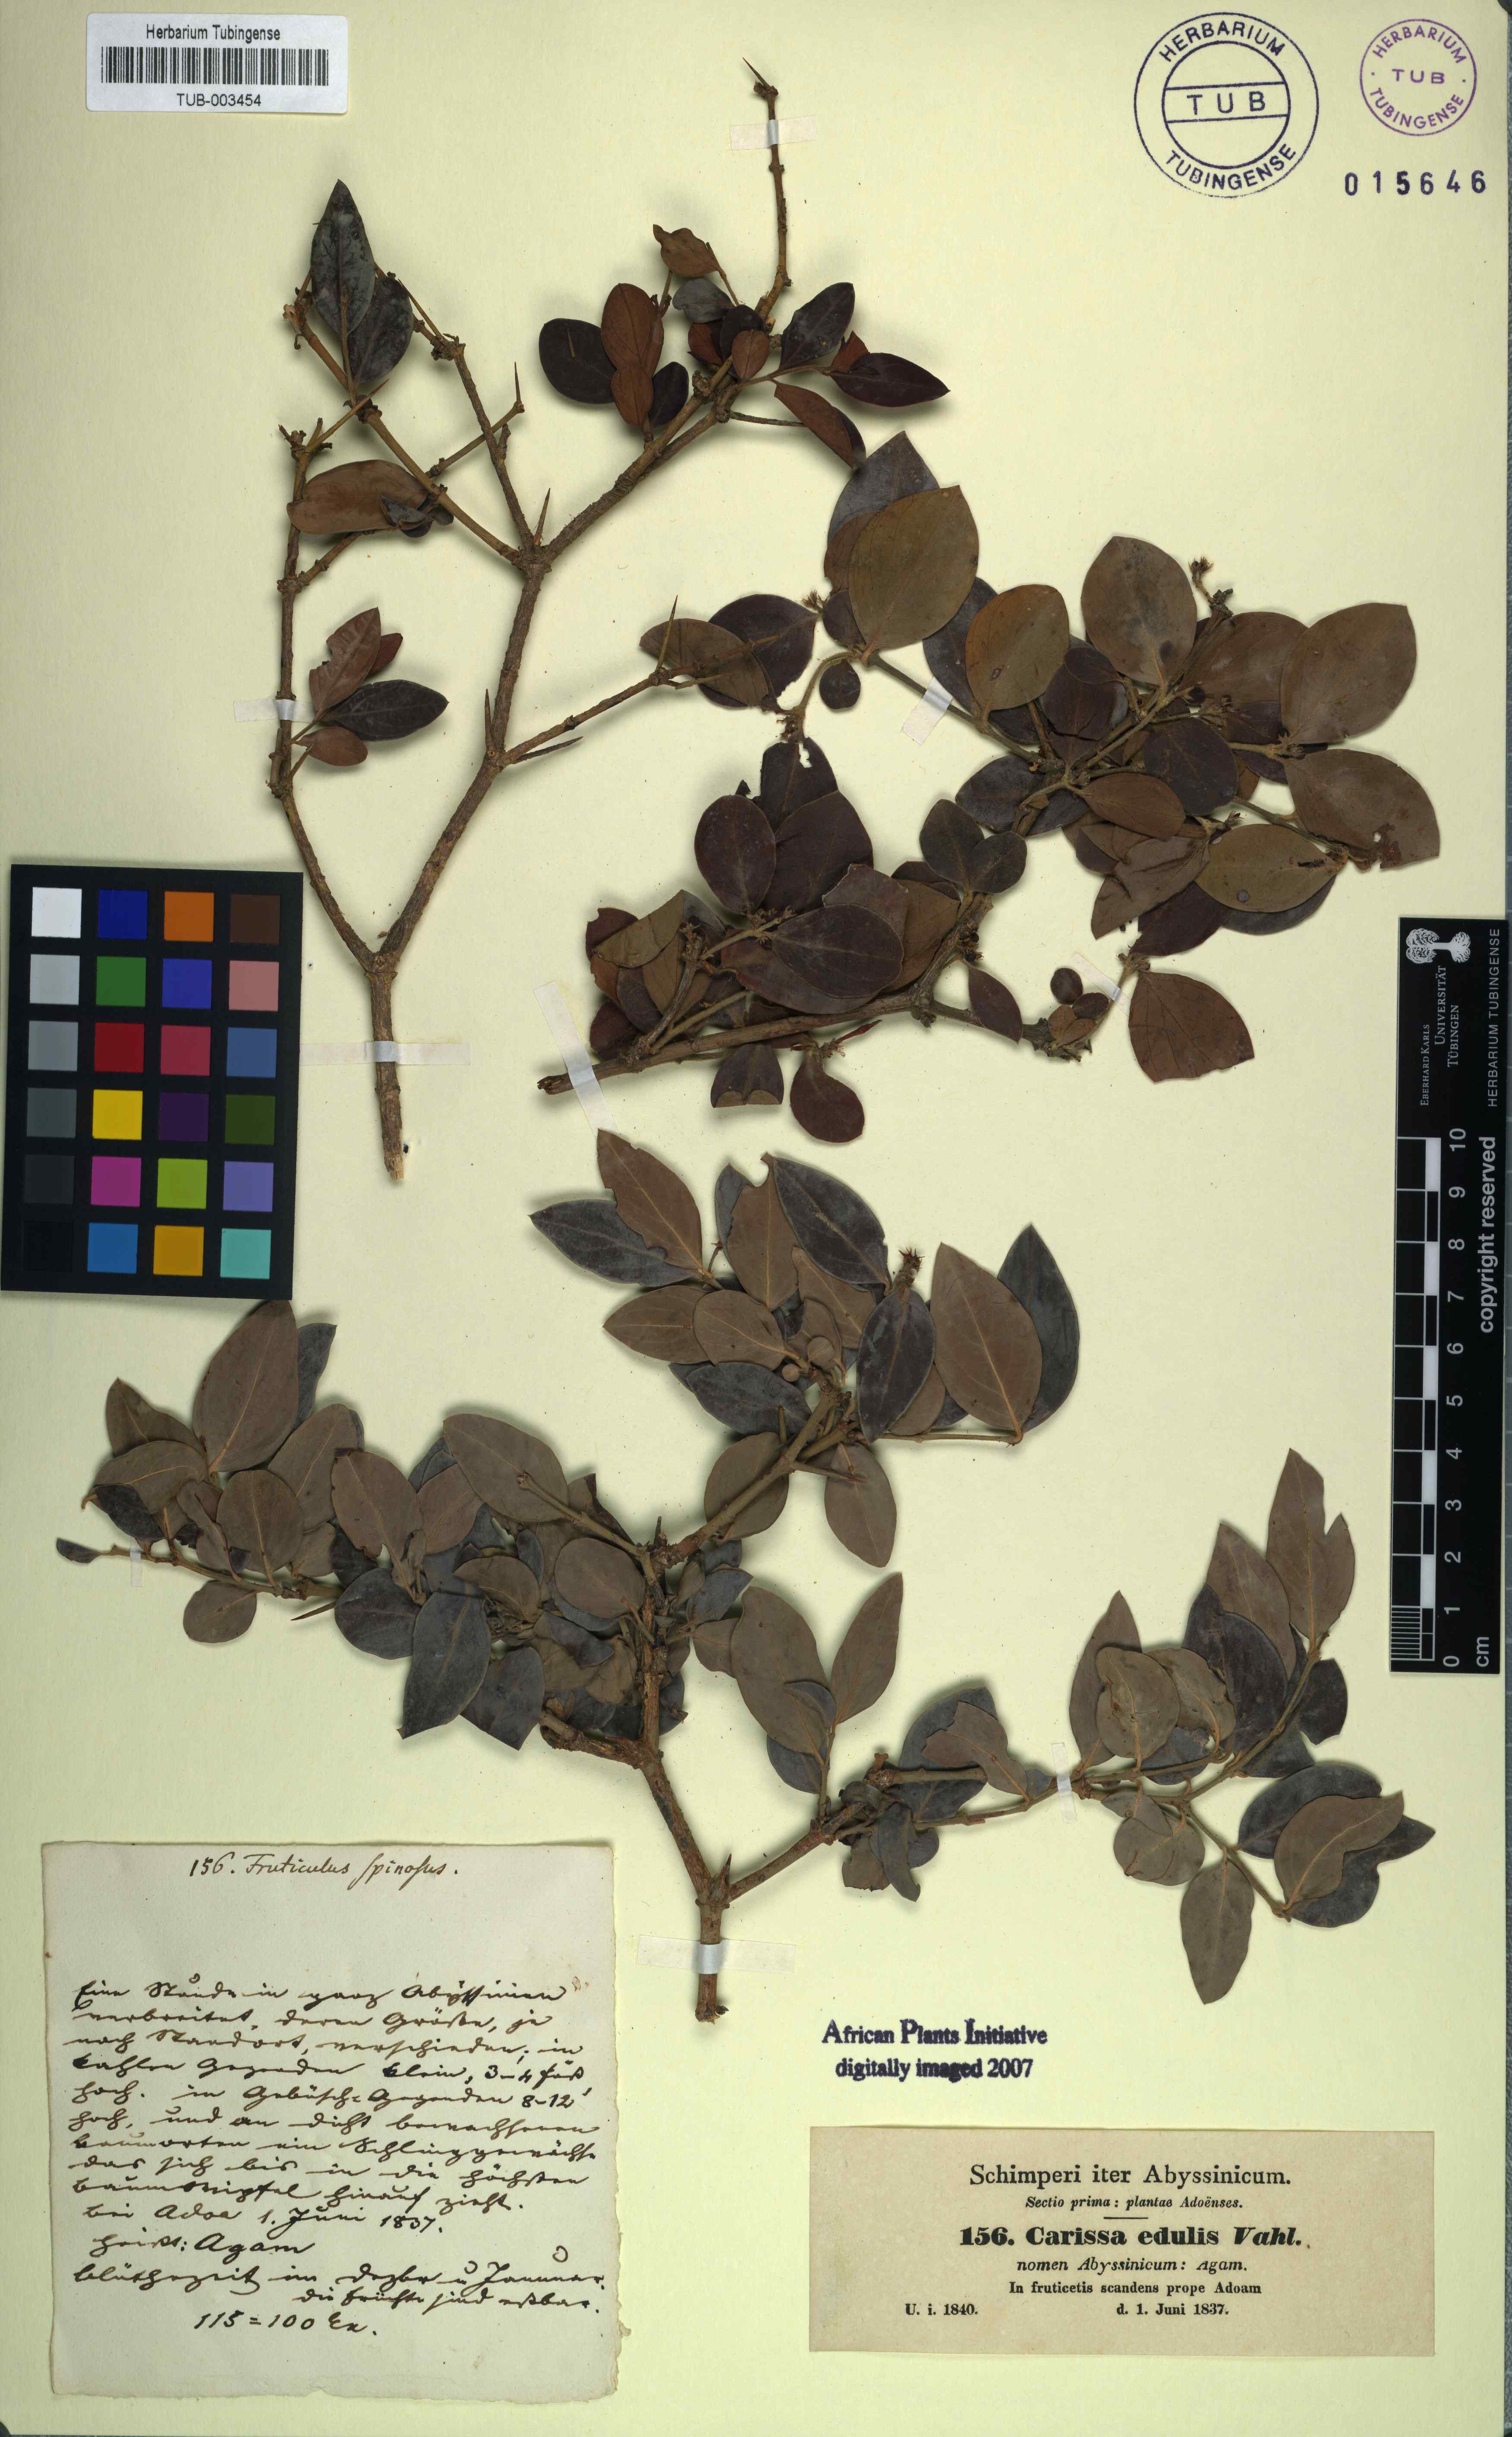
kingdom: Plantae
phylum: Tracheophyta
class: Magnoliopsida
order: Gentianales
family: Apocynaceae
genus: Carissa
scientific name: Carissa spinarum
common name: Egyptian carissa
